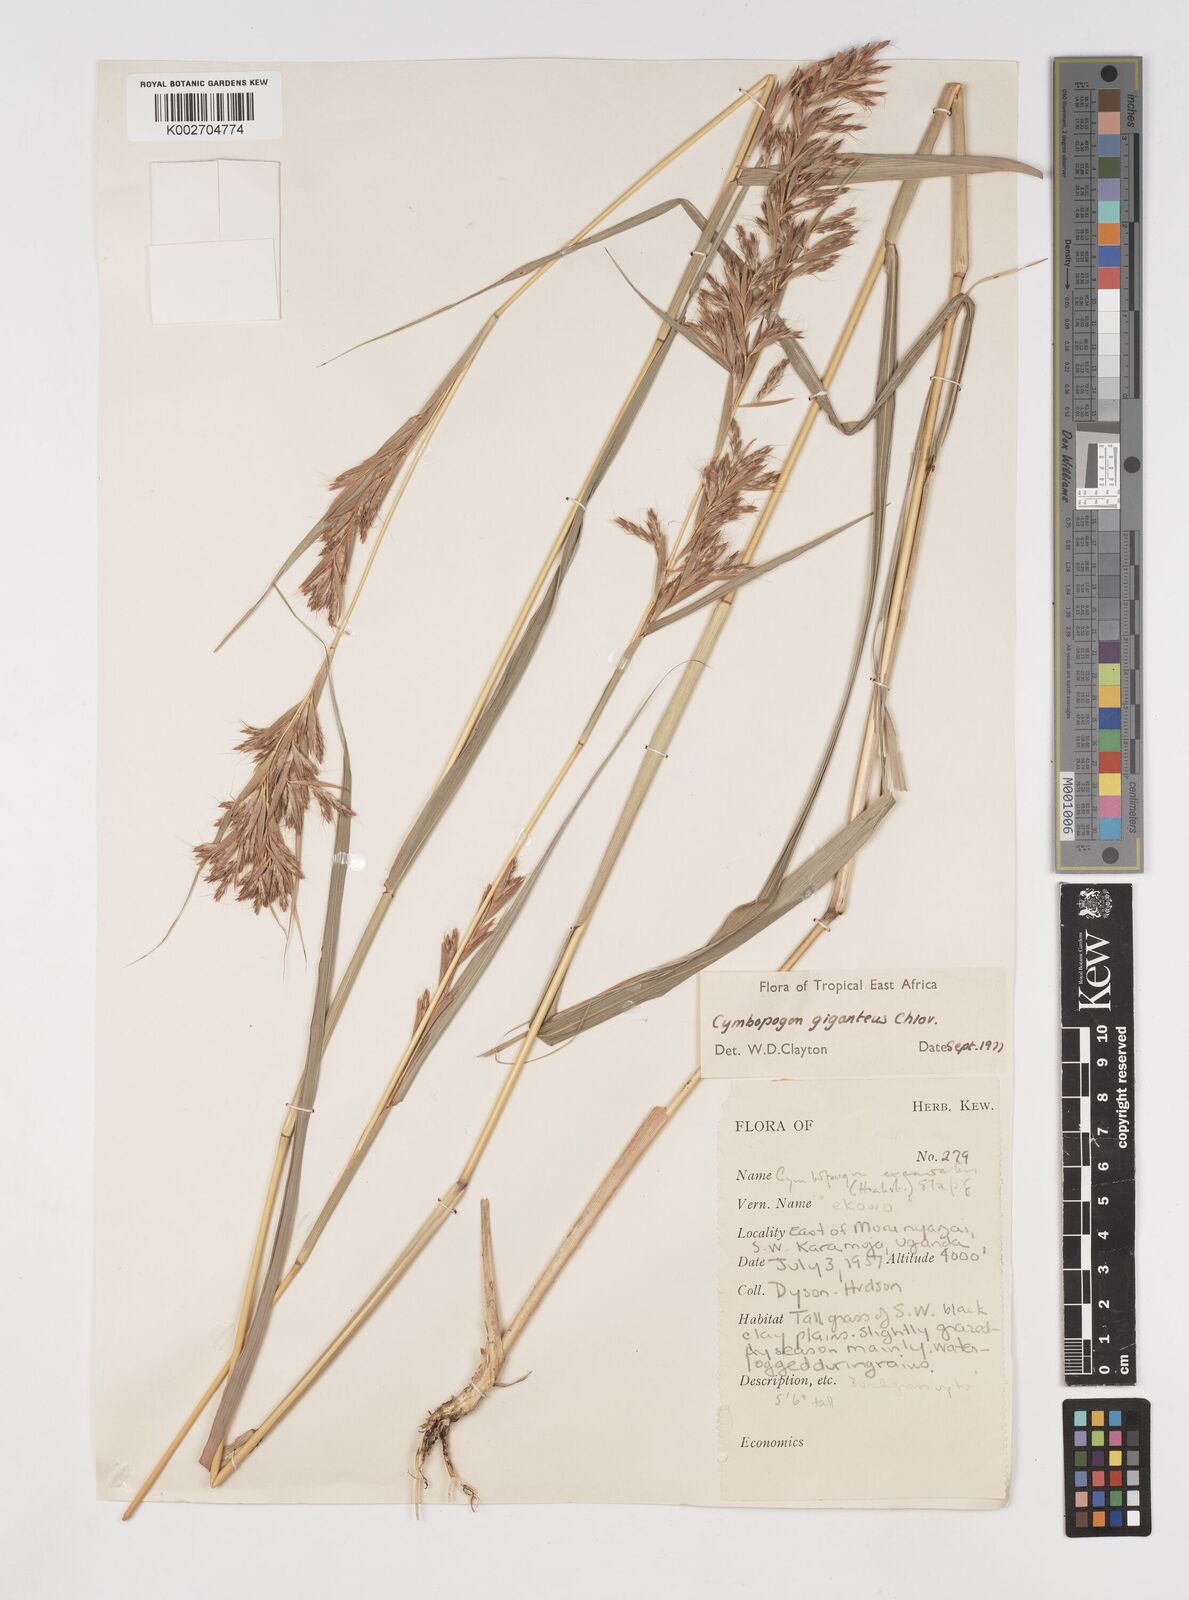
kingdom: Plantae
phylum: Tracheophyta
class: Liliopsida
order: Poales
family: Poaceae
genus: Cymbopogon
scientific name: Cymbopogon giganteus
